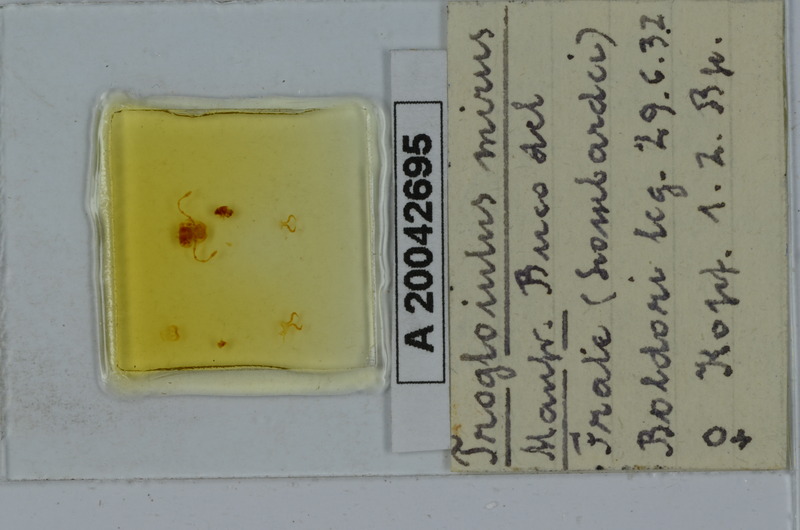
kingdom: Animalia
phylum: Arthropoda
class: Diplopoda
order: Julida
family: Julidae
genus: Trogloiulus
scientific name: Trogloiulus mirus
